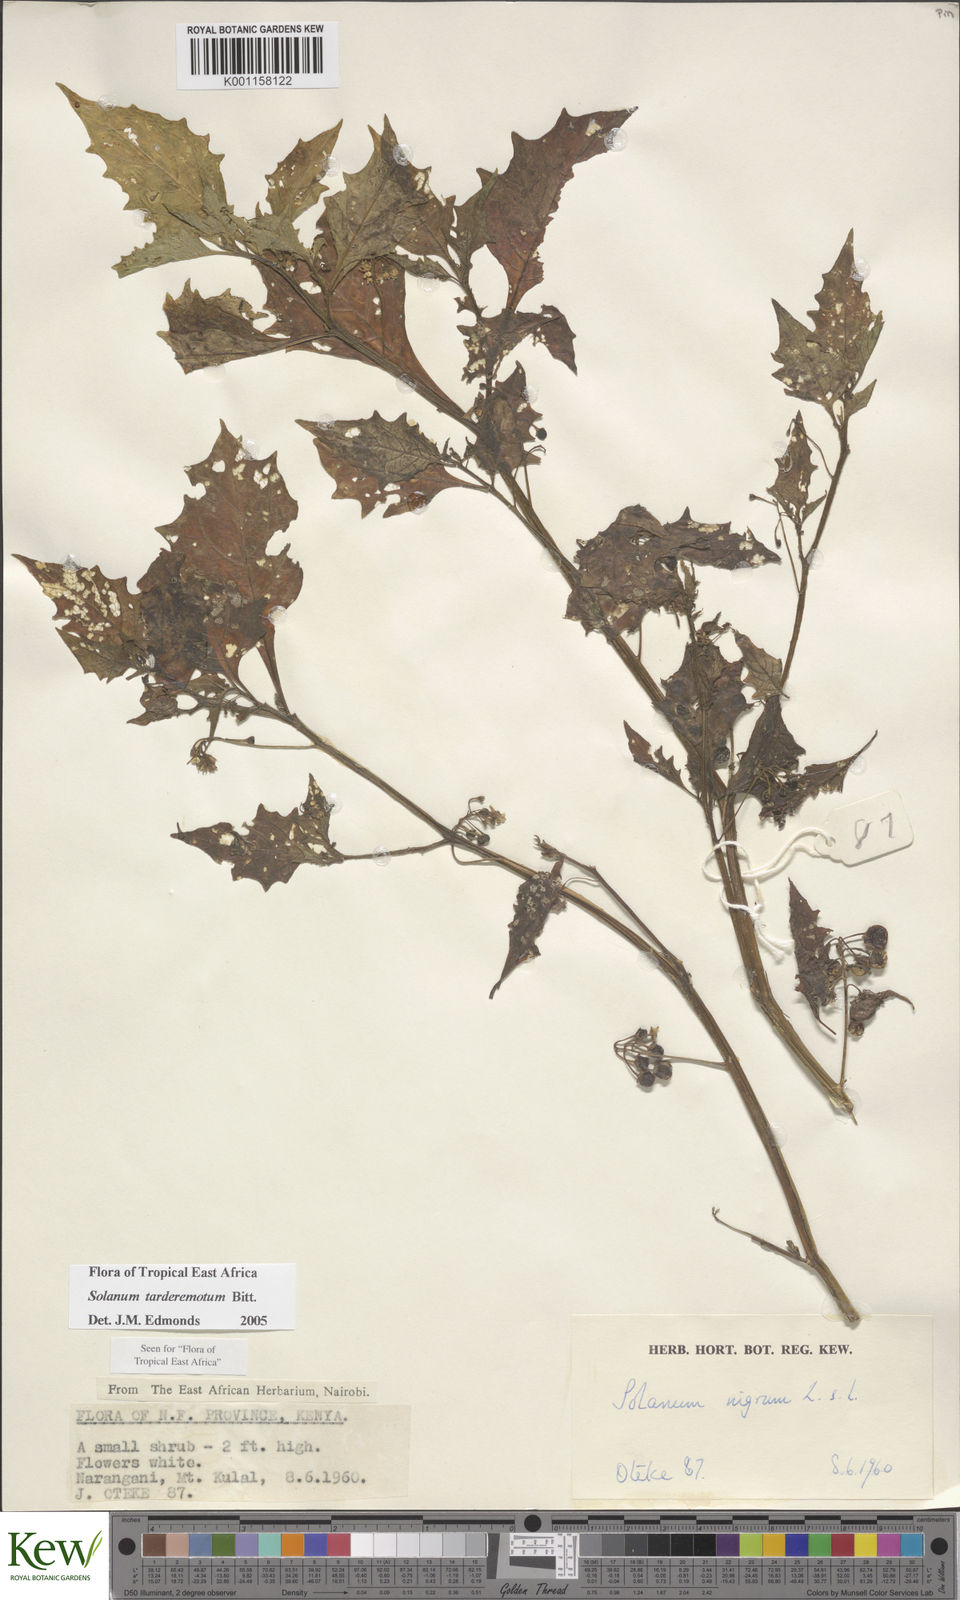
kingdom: Plantae
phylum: Tracheophyta
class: Magnoliopsida
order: Solanales
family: Solanaceae
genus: Solanum
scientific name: Solanum tarderemotum
